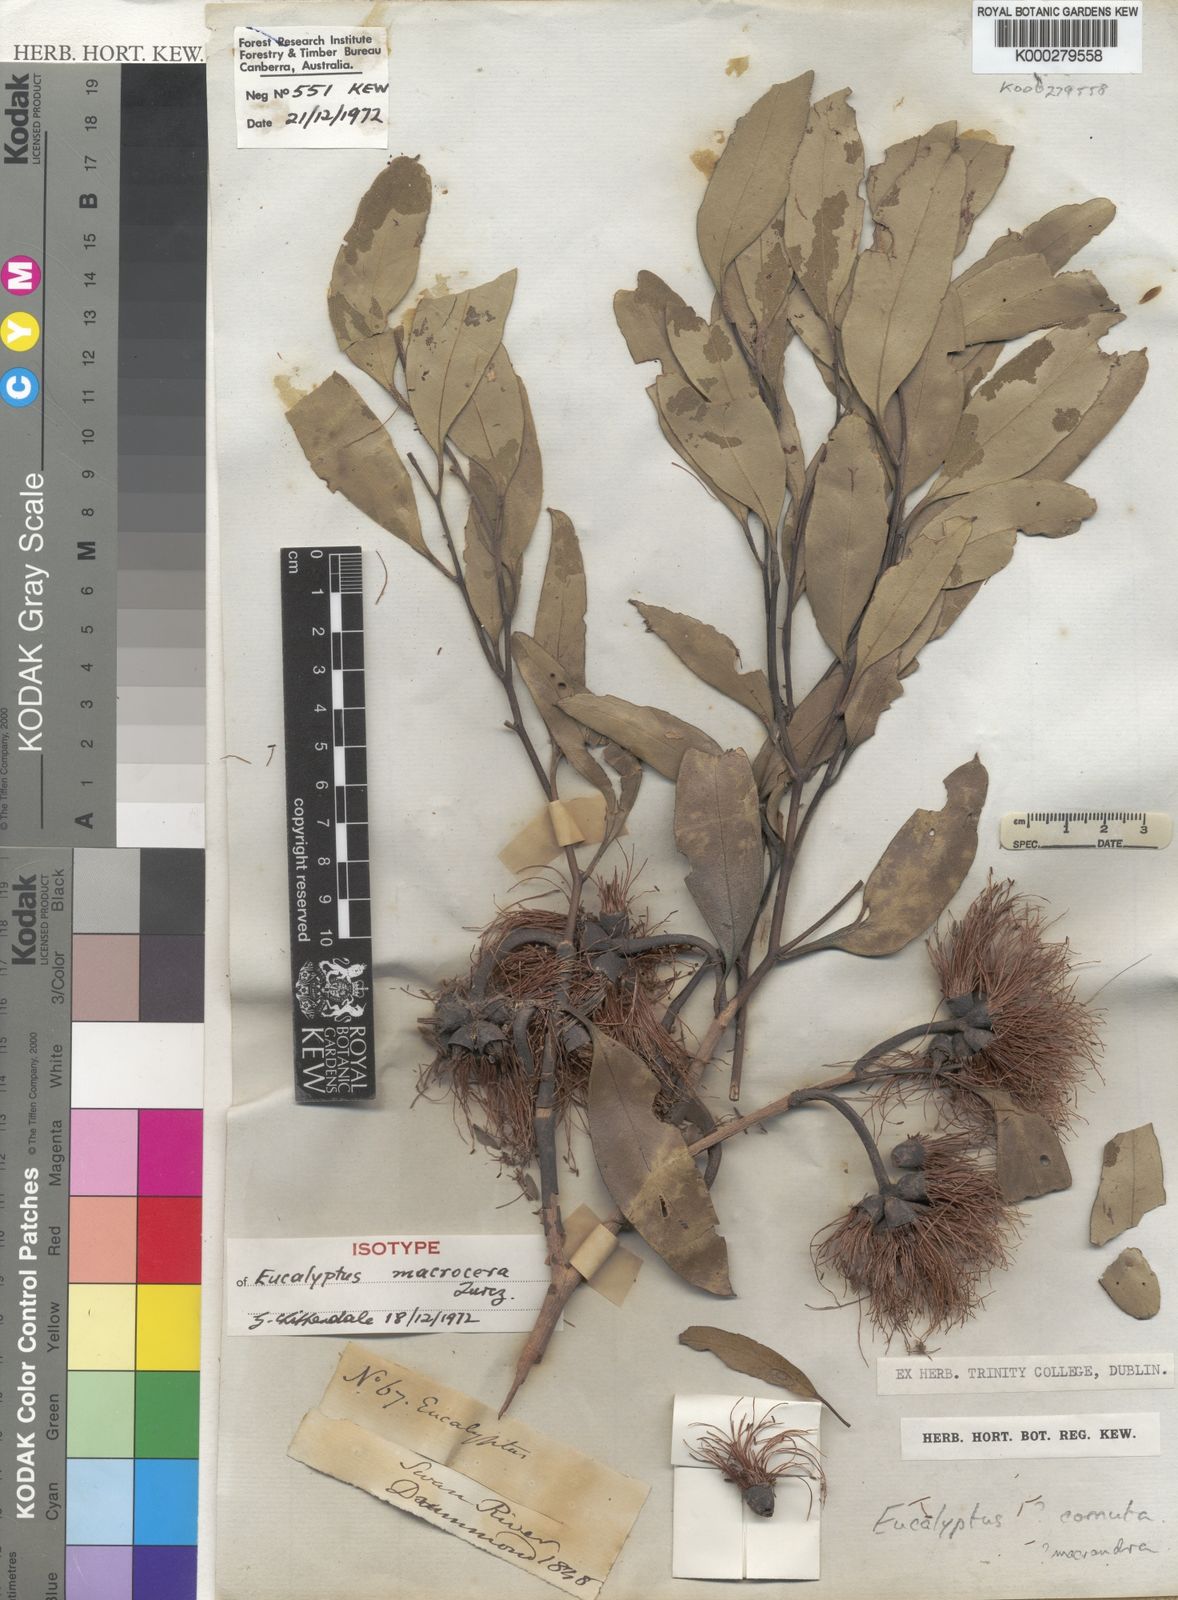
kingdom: Plantae
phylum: Tracheophyta
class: Magnoliopsida
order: Myrtales
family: Myrtaceae
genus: Eucalyptus
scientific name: Eucalyptus cornuta
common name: Yate
